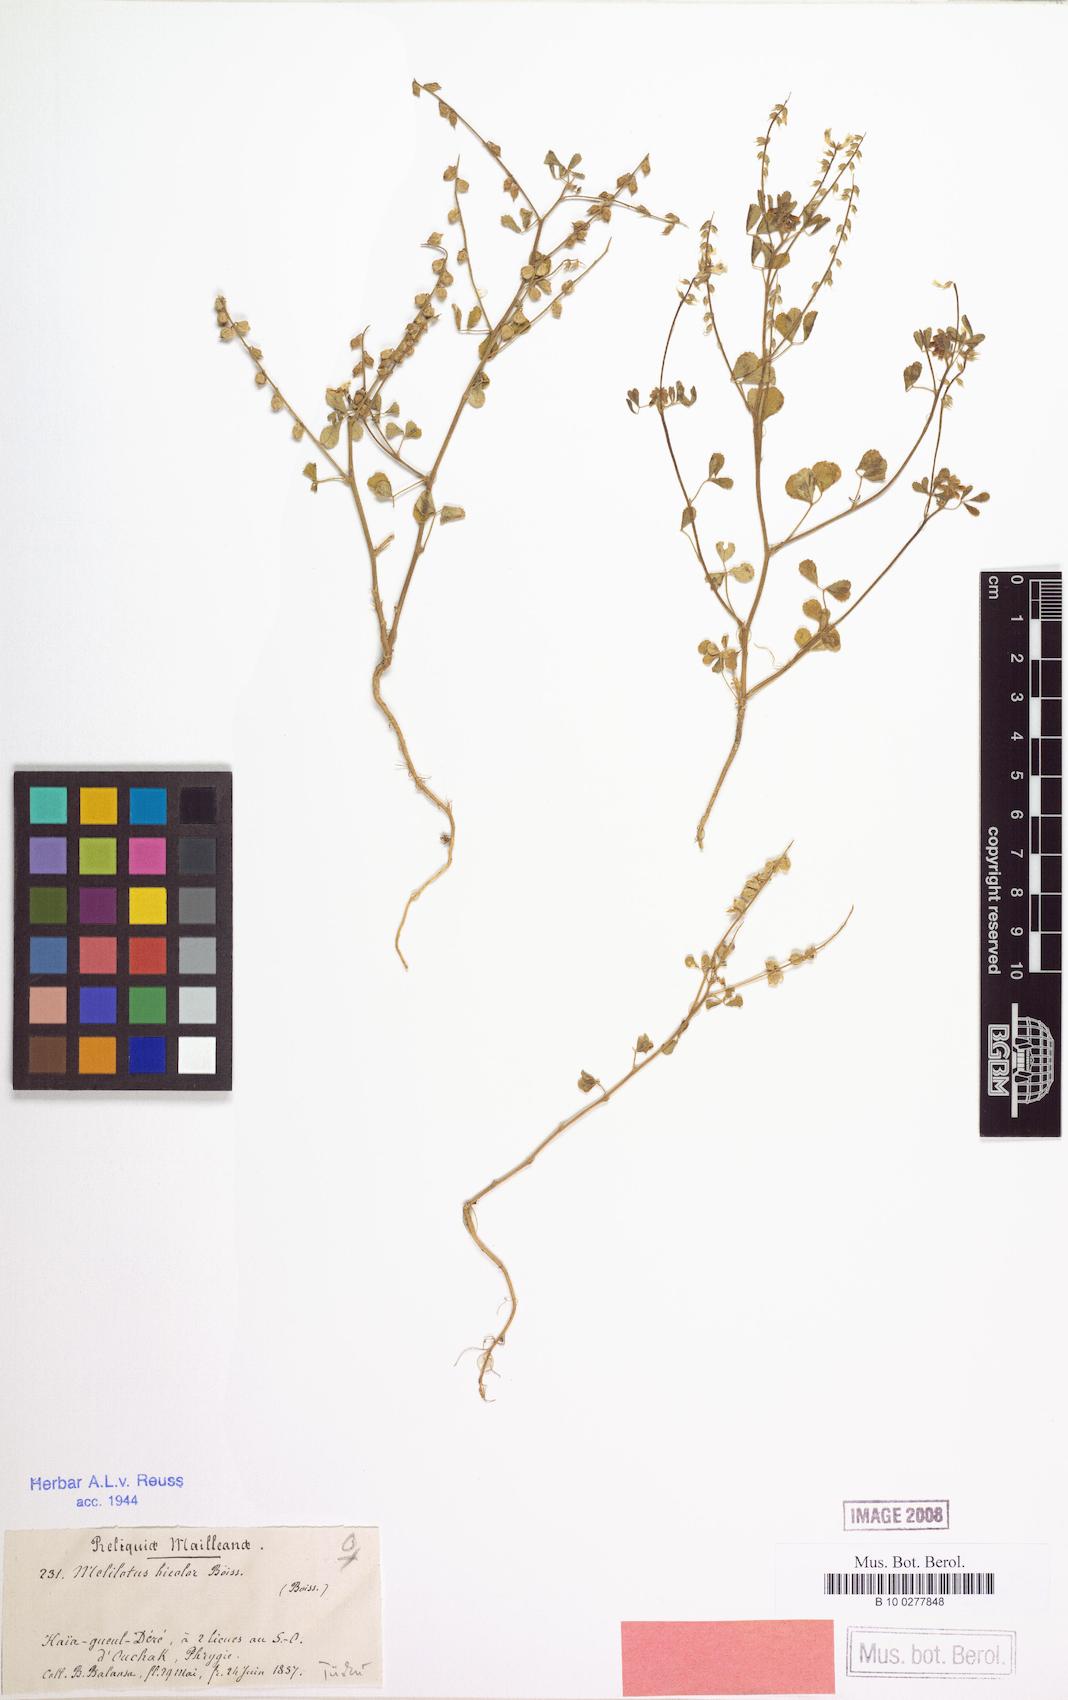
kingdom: Plantae
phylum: Tracheophyta
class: Magnoliopsida
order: Fabales
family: Fabaceae
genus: Melilotus
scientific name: Melilotus bicolor
